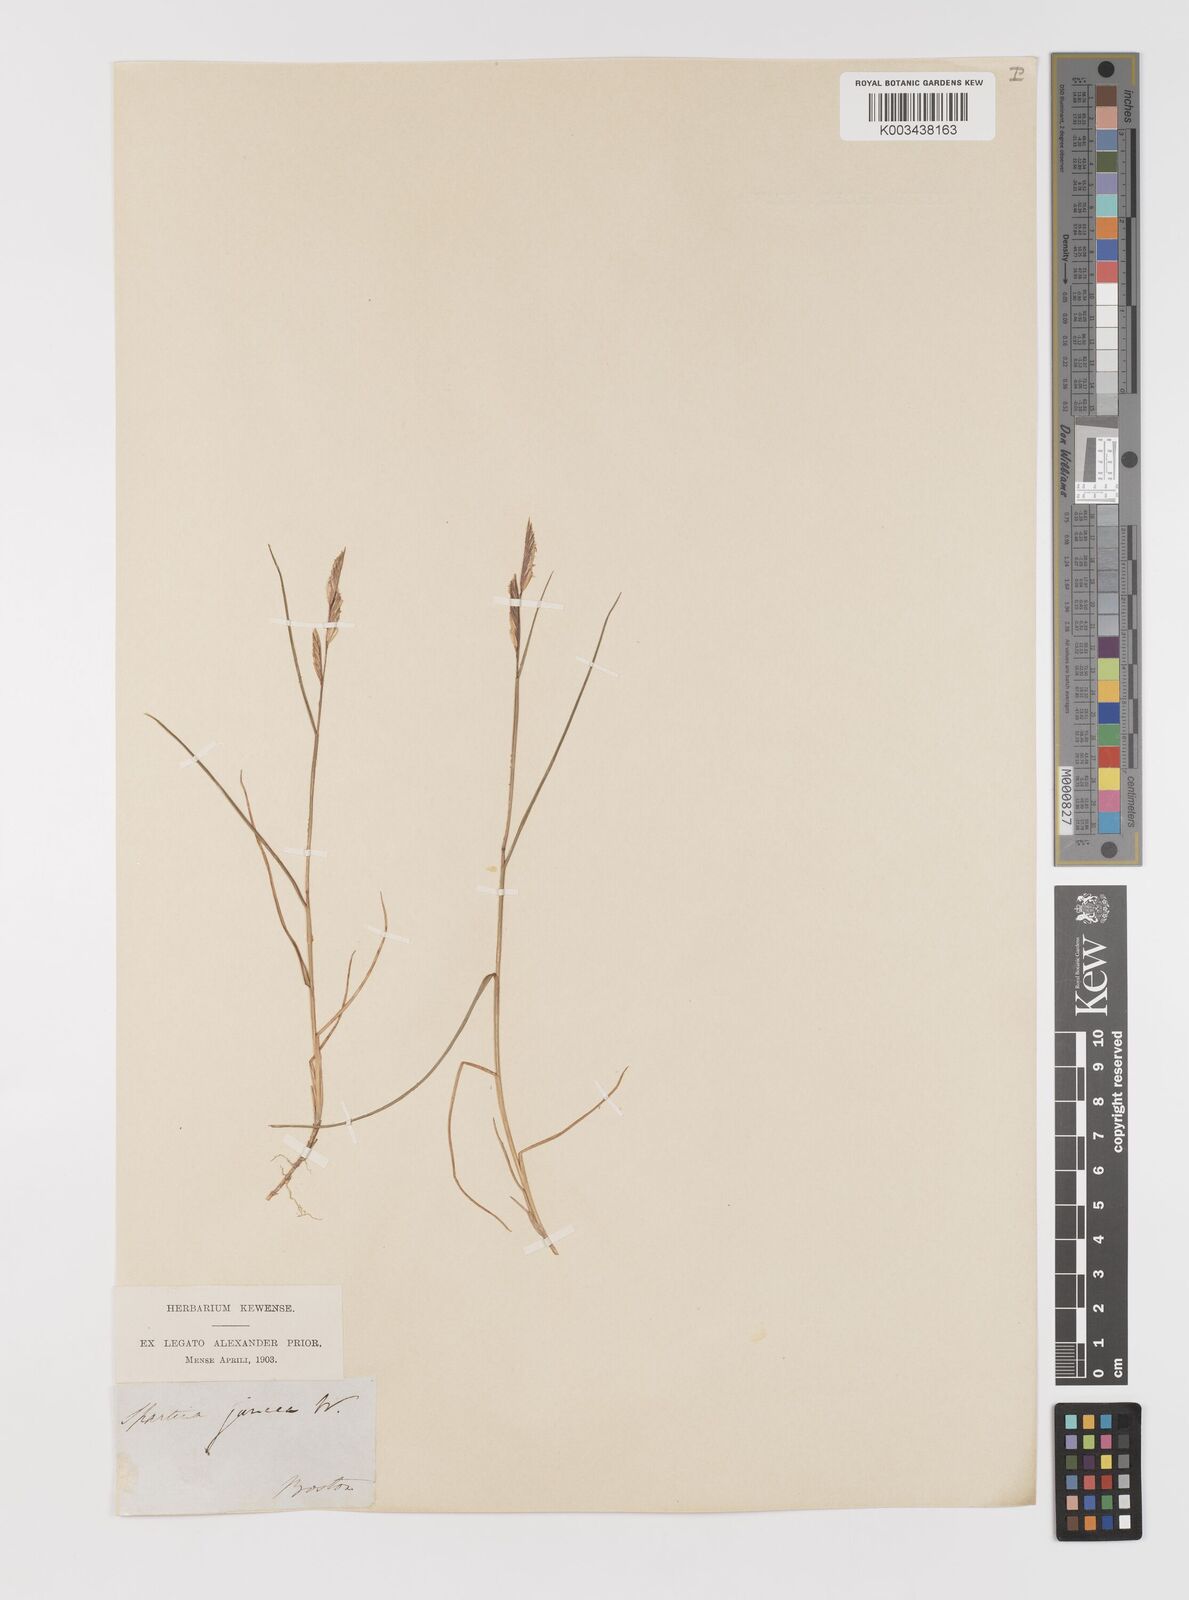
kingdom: Plantae
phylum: Tracheophyta
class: Liliopsida
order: Poales
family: Poaceae
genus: Sporobolus
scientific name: Sporobolus pumilus
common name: Highwater grass
